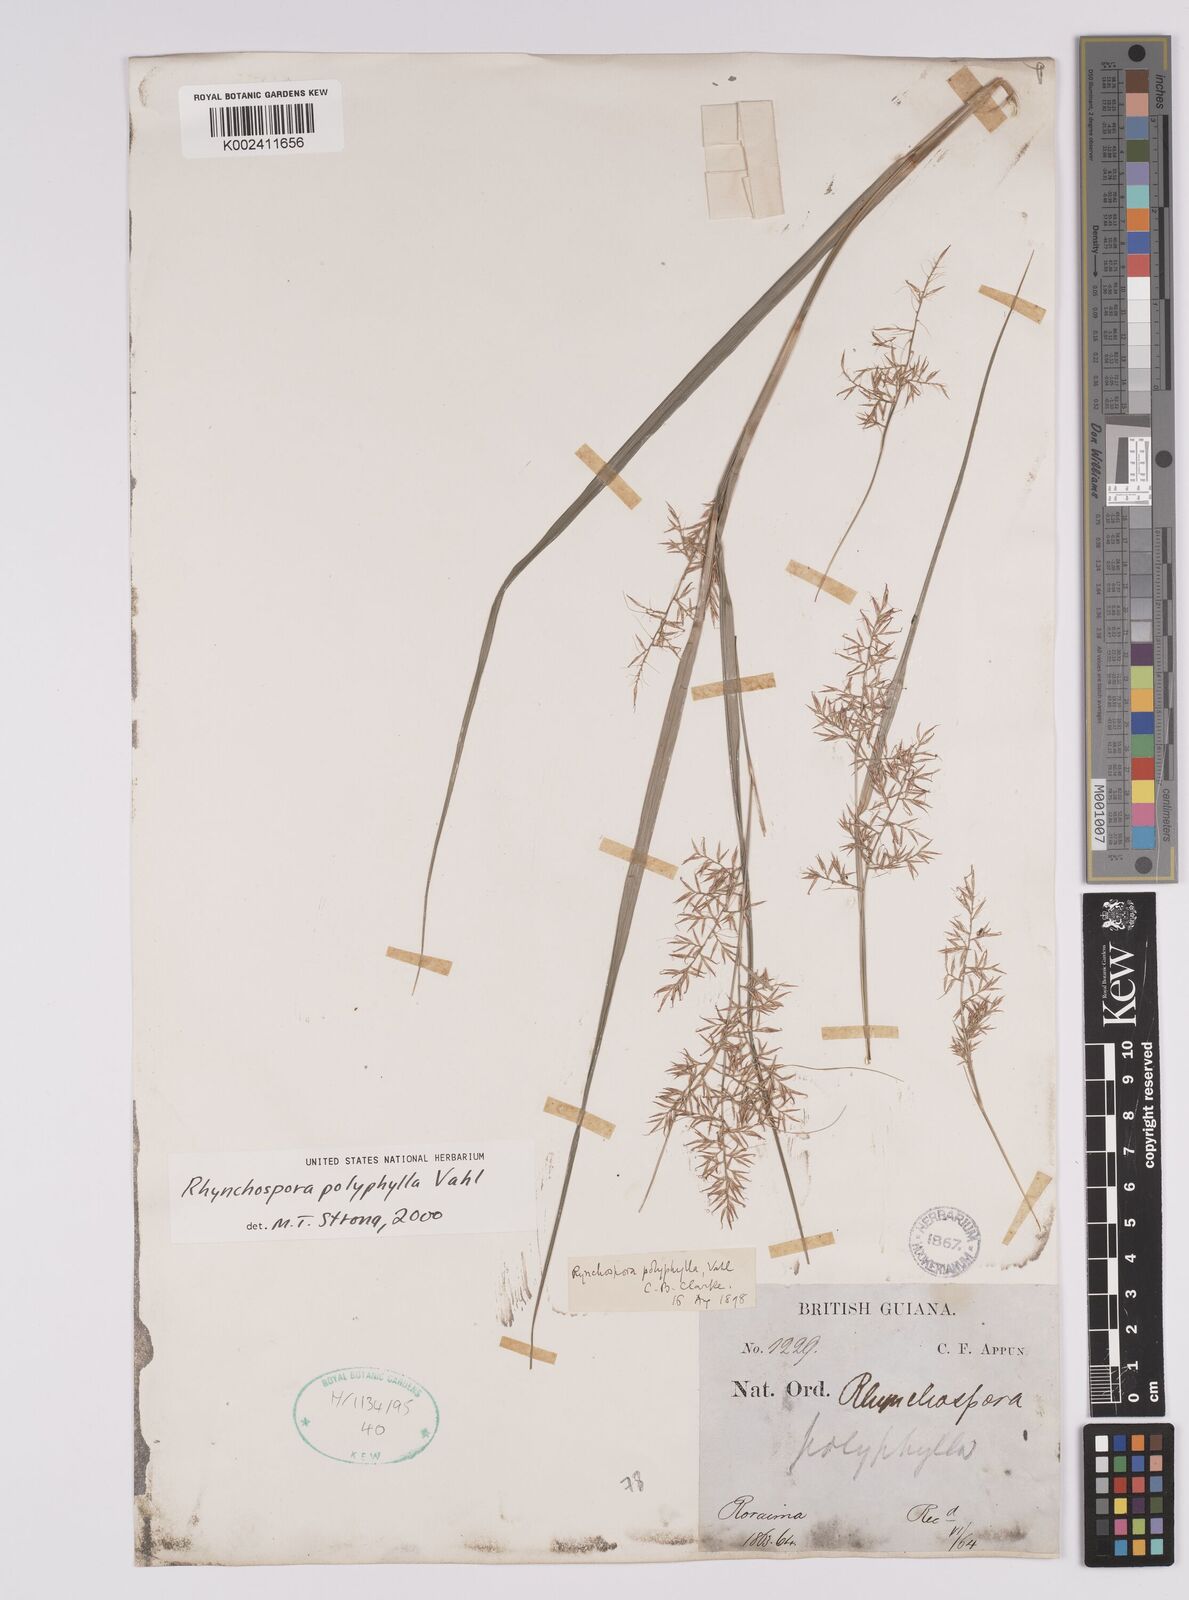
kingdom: Plantae
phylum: Tracheophyta
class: Liliopsida
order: Poales
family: Cyperaceae
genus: Rhynchospora
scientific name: Rhynchospora polyphylla
